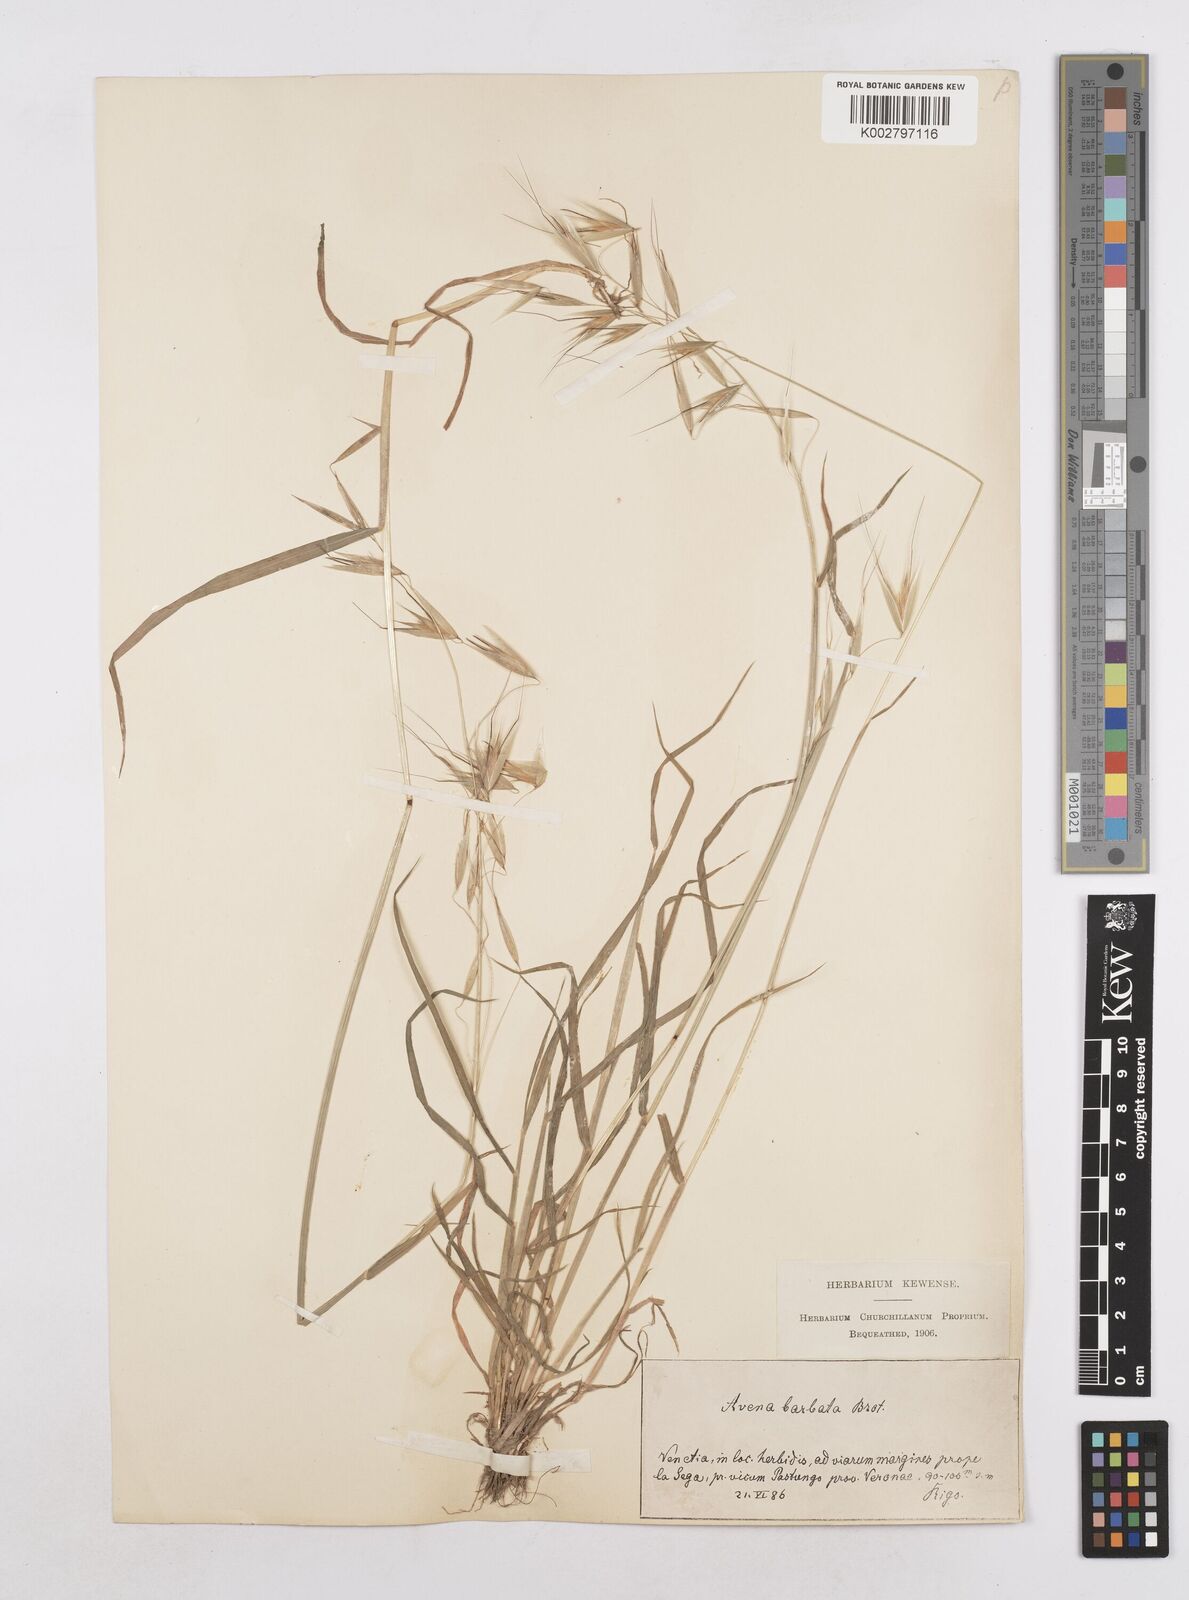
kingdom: Plantae
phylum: Tracheophyta
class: Liliopsida
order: Poales
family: Poaceae
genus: Avena
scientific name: Avena
